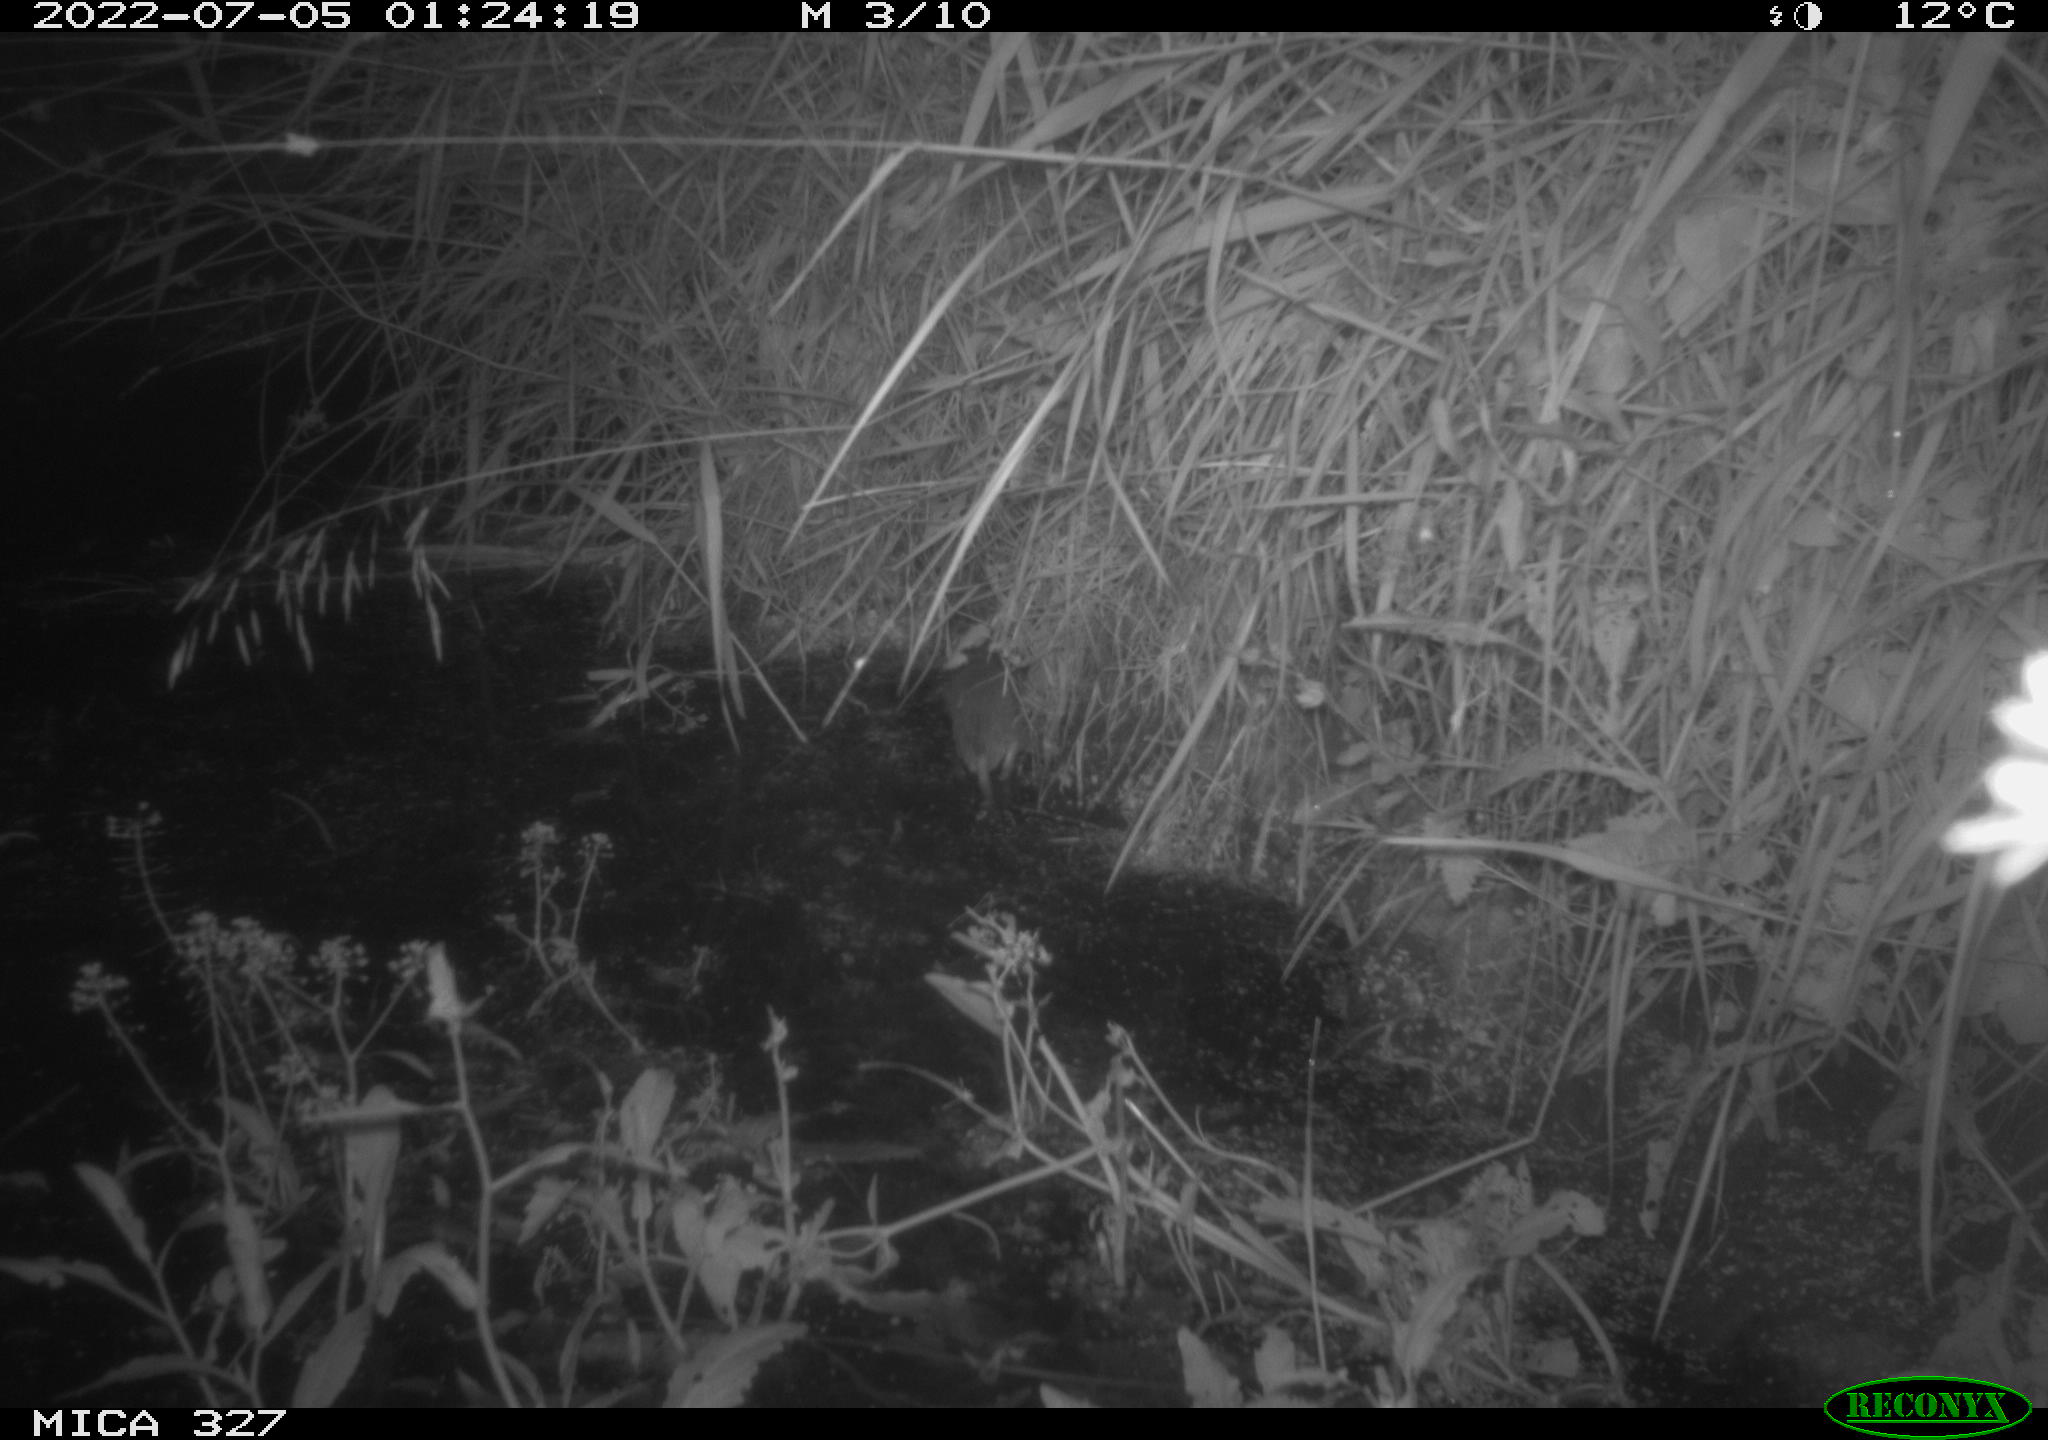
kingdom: Animalia
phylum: Chordata
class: Mammalia
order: Rodentia
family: Muridae
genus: Rattus
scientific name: Rattus norvegicus
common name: Brown rat
